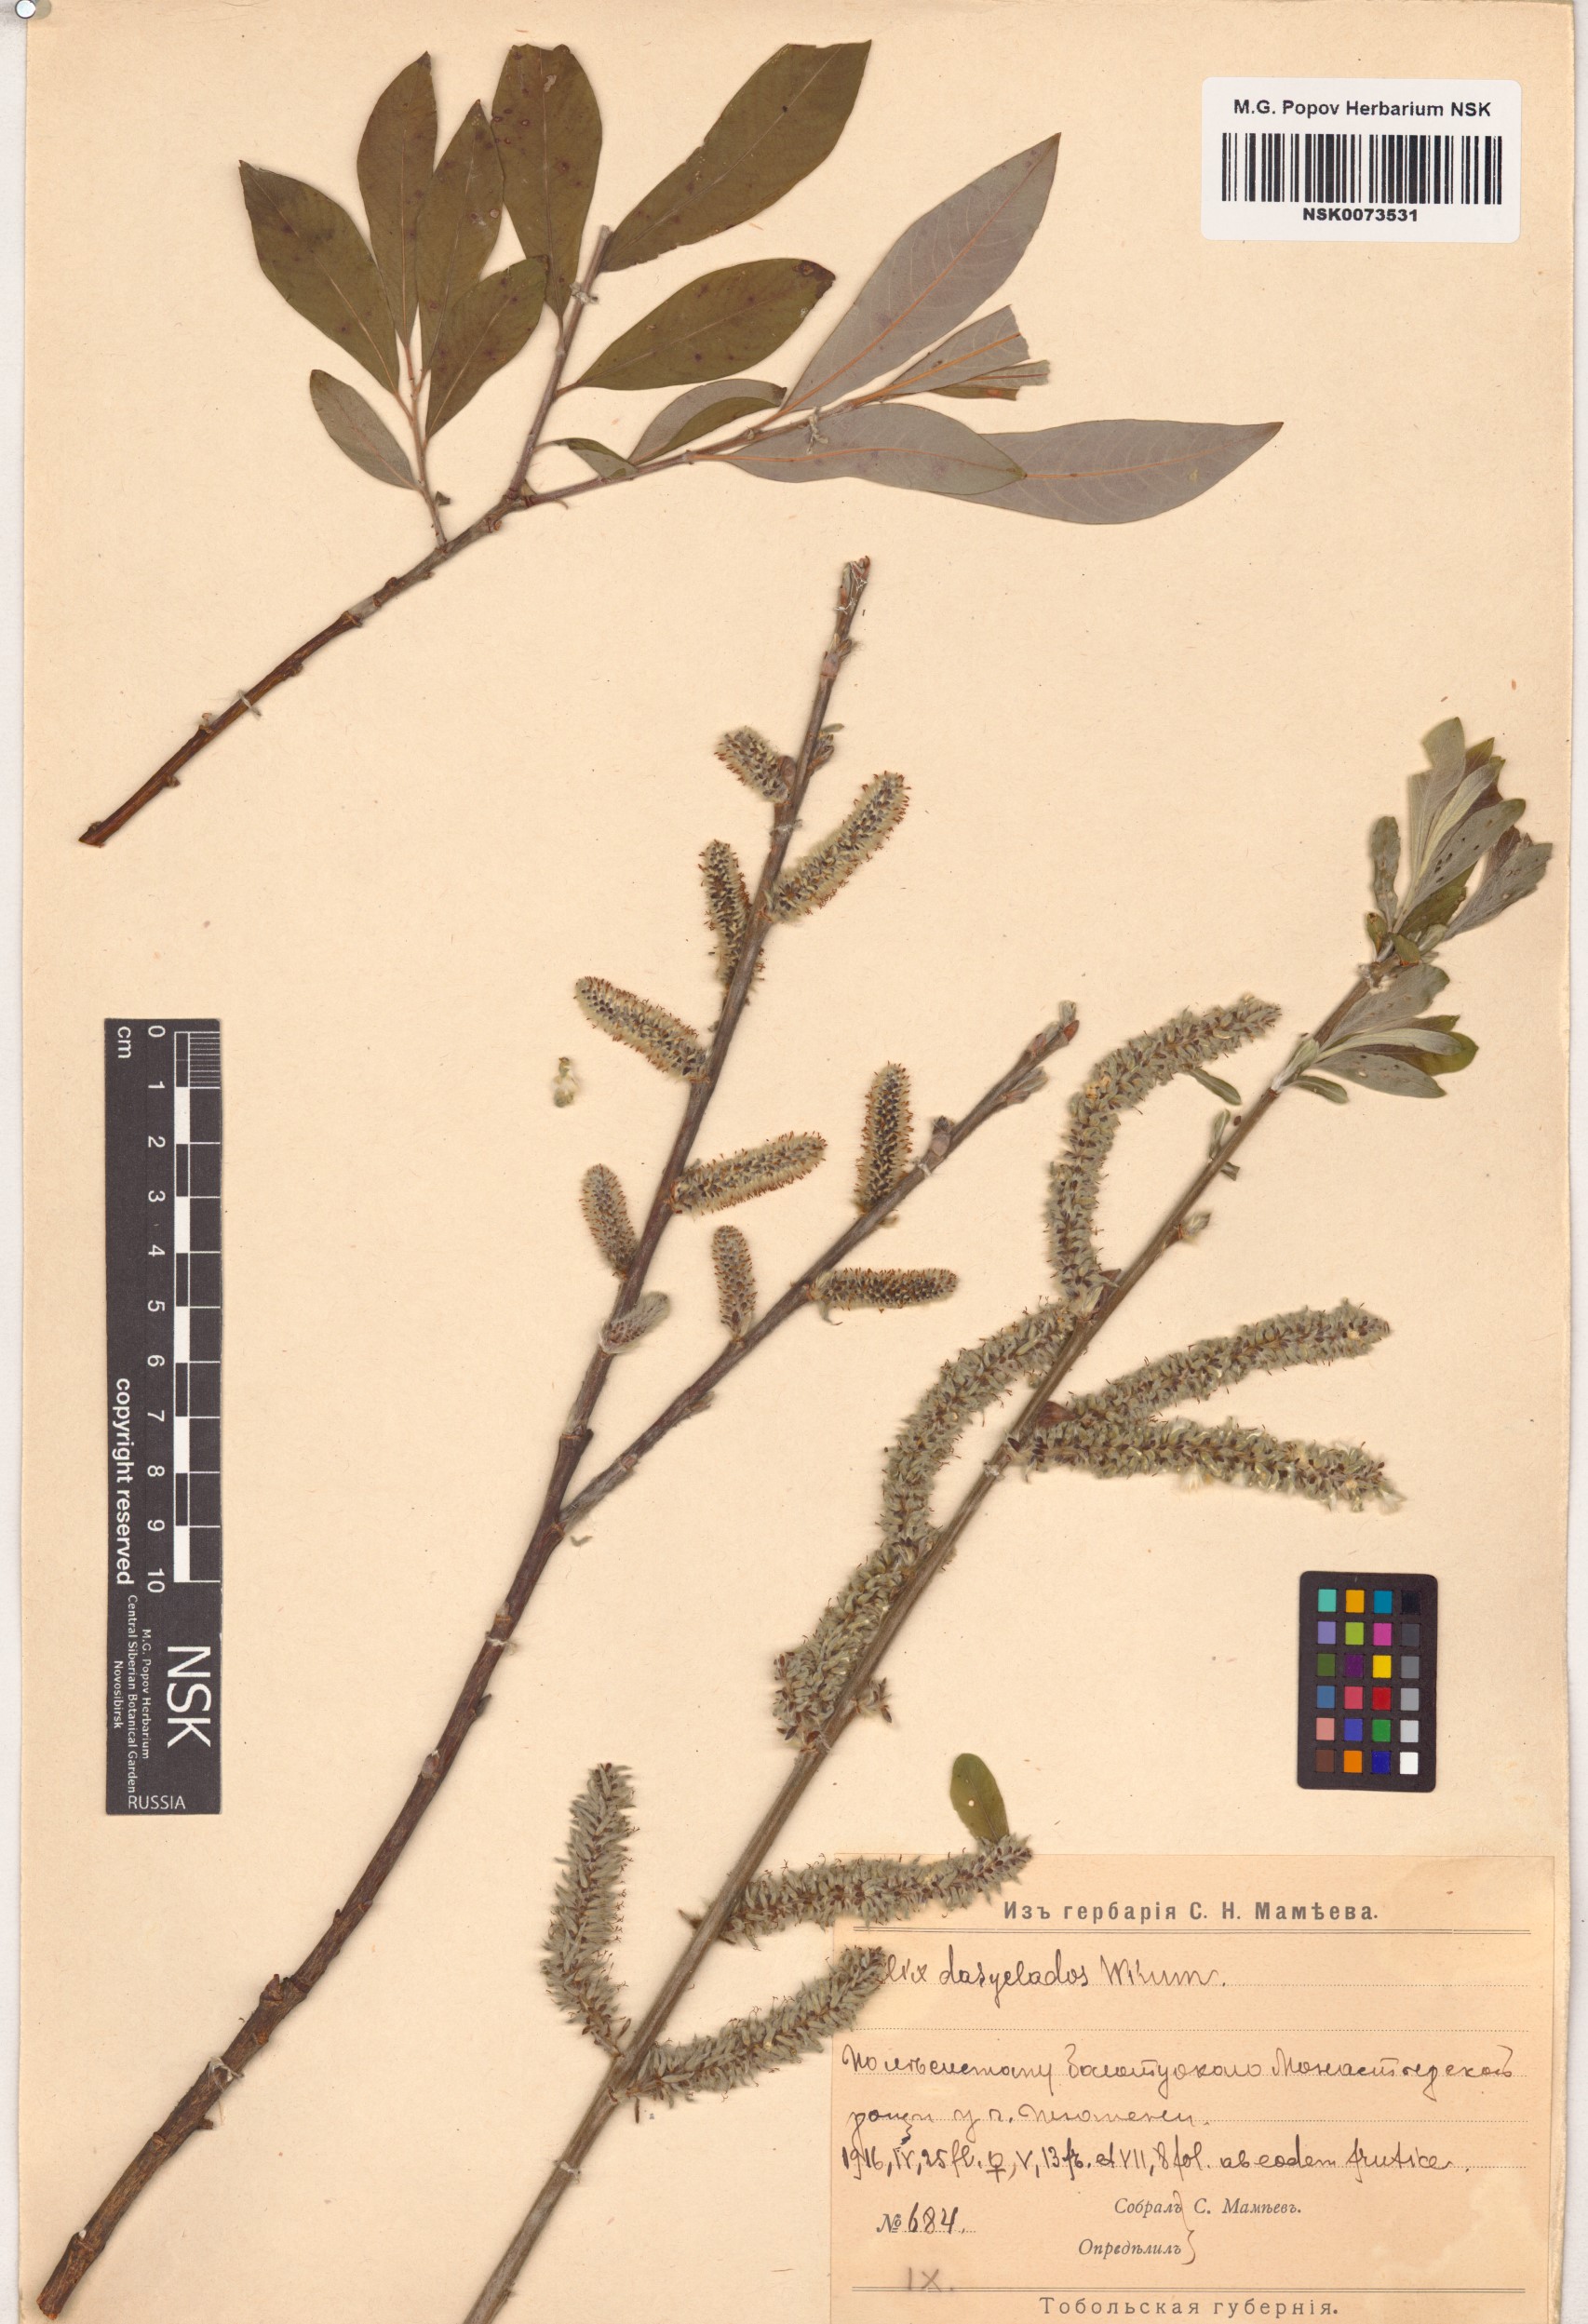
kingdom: Plantae
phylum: Tracheophyta
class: Magnoliopsida
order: Malpighiales
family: Salicaceae
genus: Salix
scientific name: Salix gmelinii
